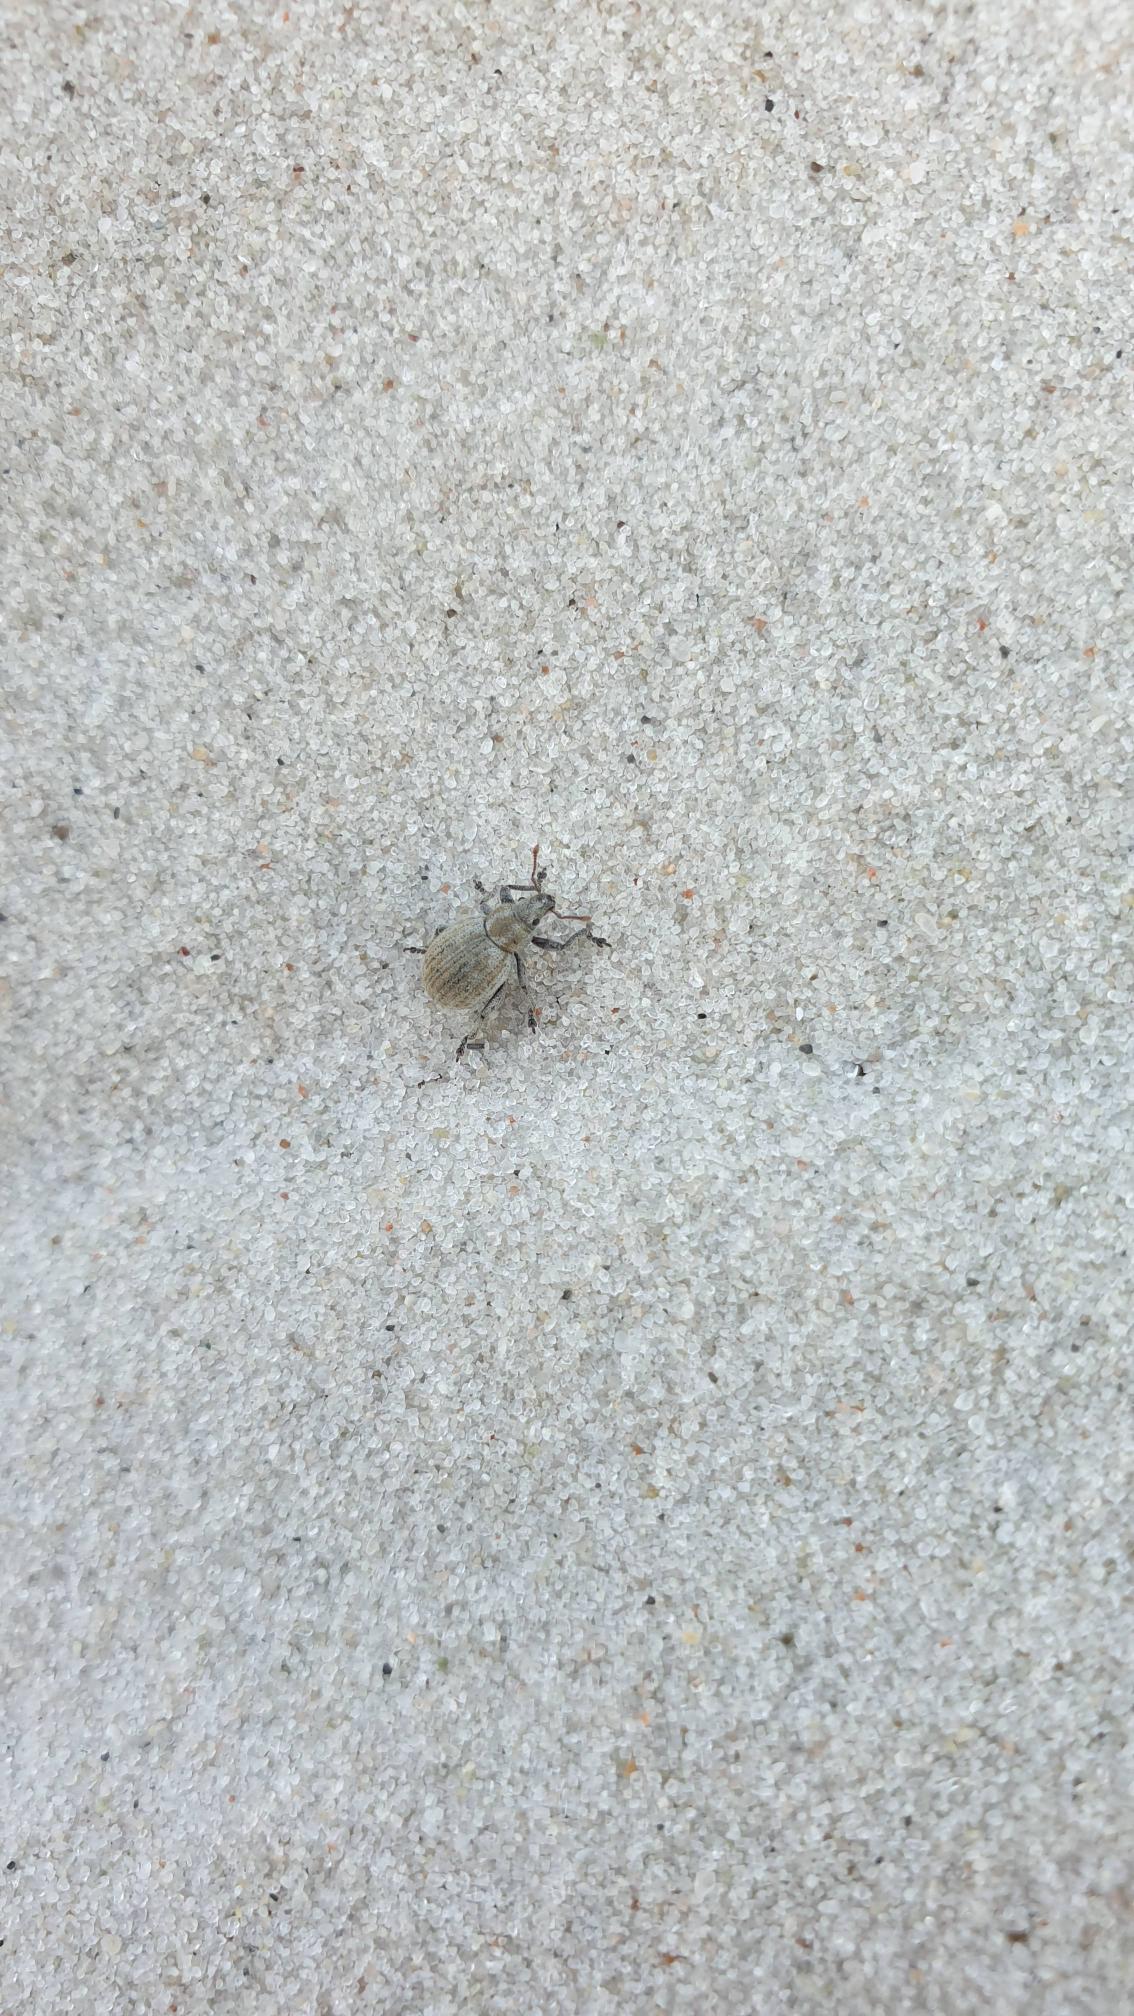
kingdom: Animalia
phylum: Arthropoda
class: Insecta
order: Coleoptera
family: Curculionidae
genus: Philopedon
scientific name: Philopedon plagiatum
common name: Sandgråsnude
